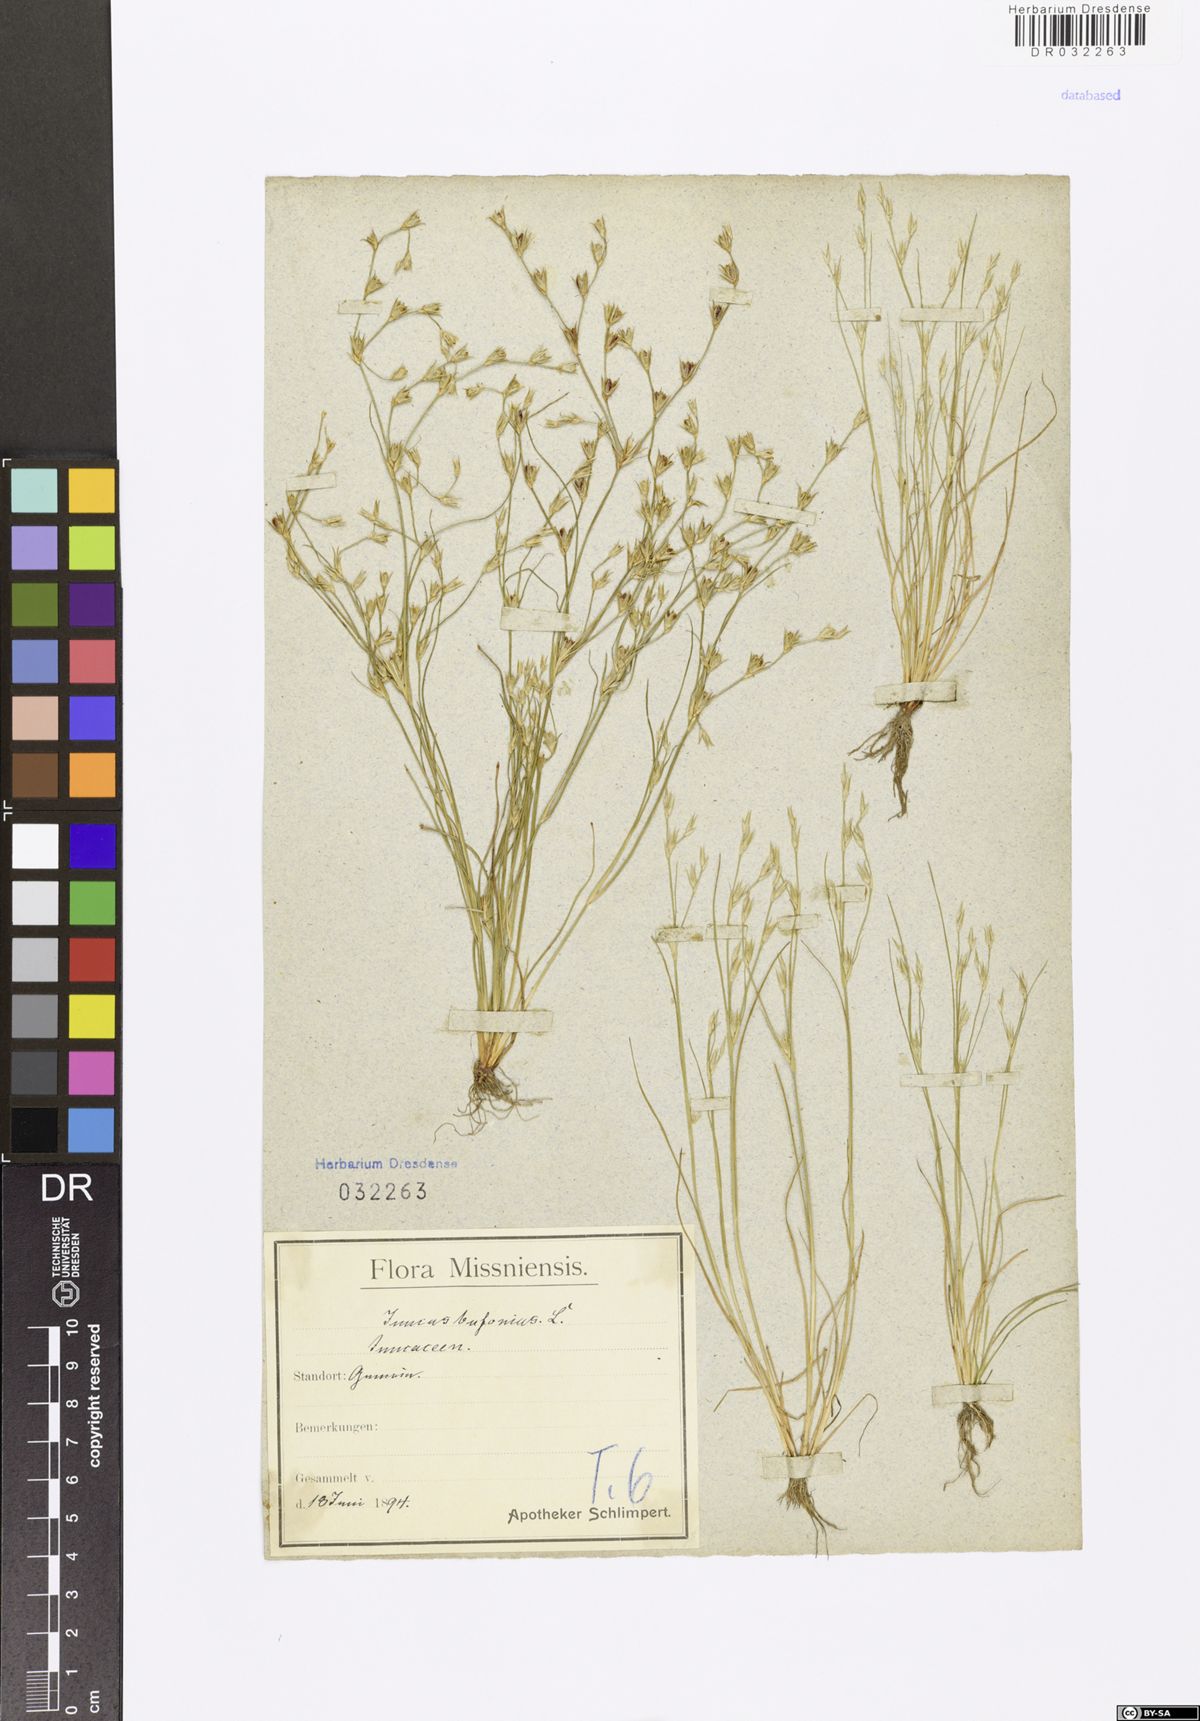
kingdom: Plantae
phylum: Tracheophyta
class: Liliopsida
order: Poales
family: Juncaceae
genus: Juncus
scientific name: Juncus bufonius
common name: Toad rush
